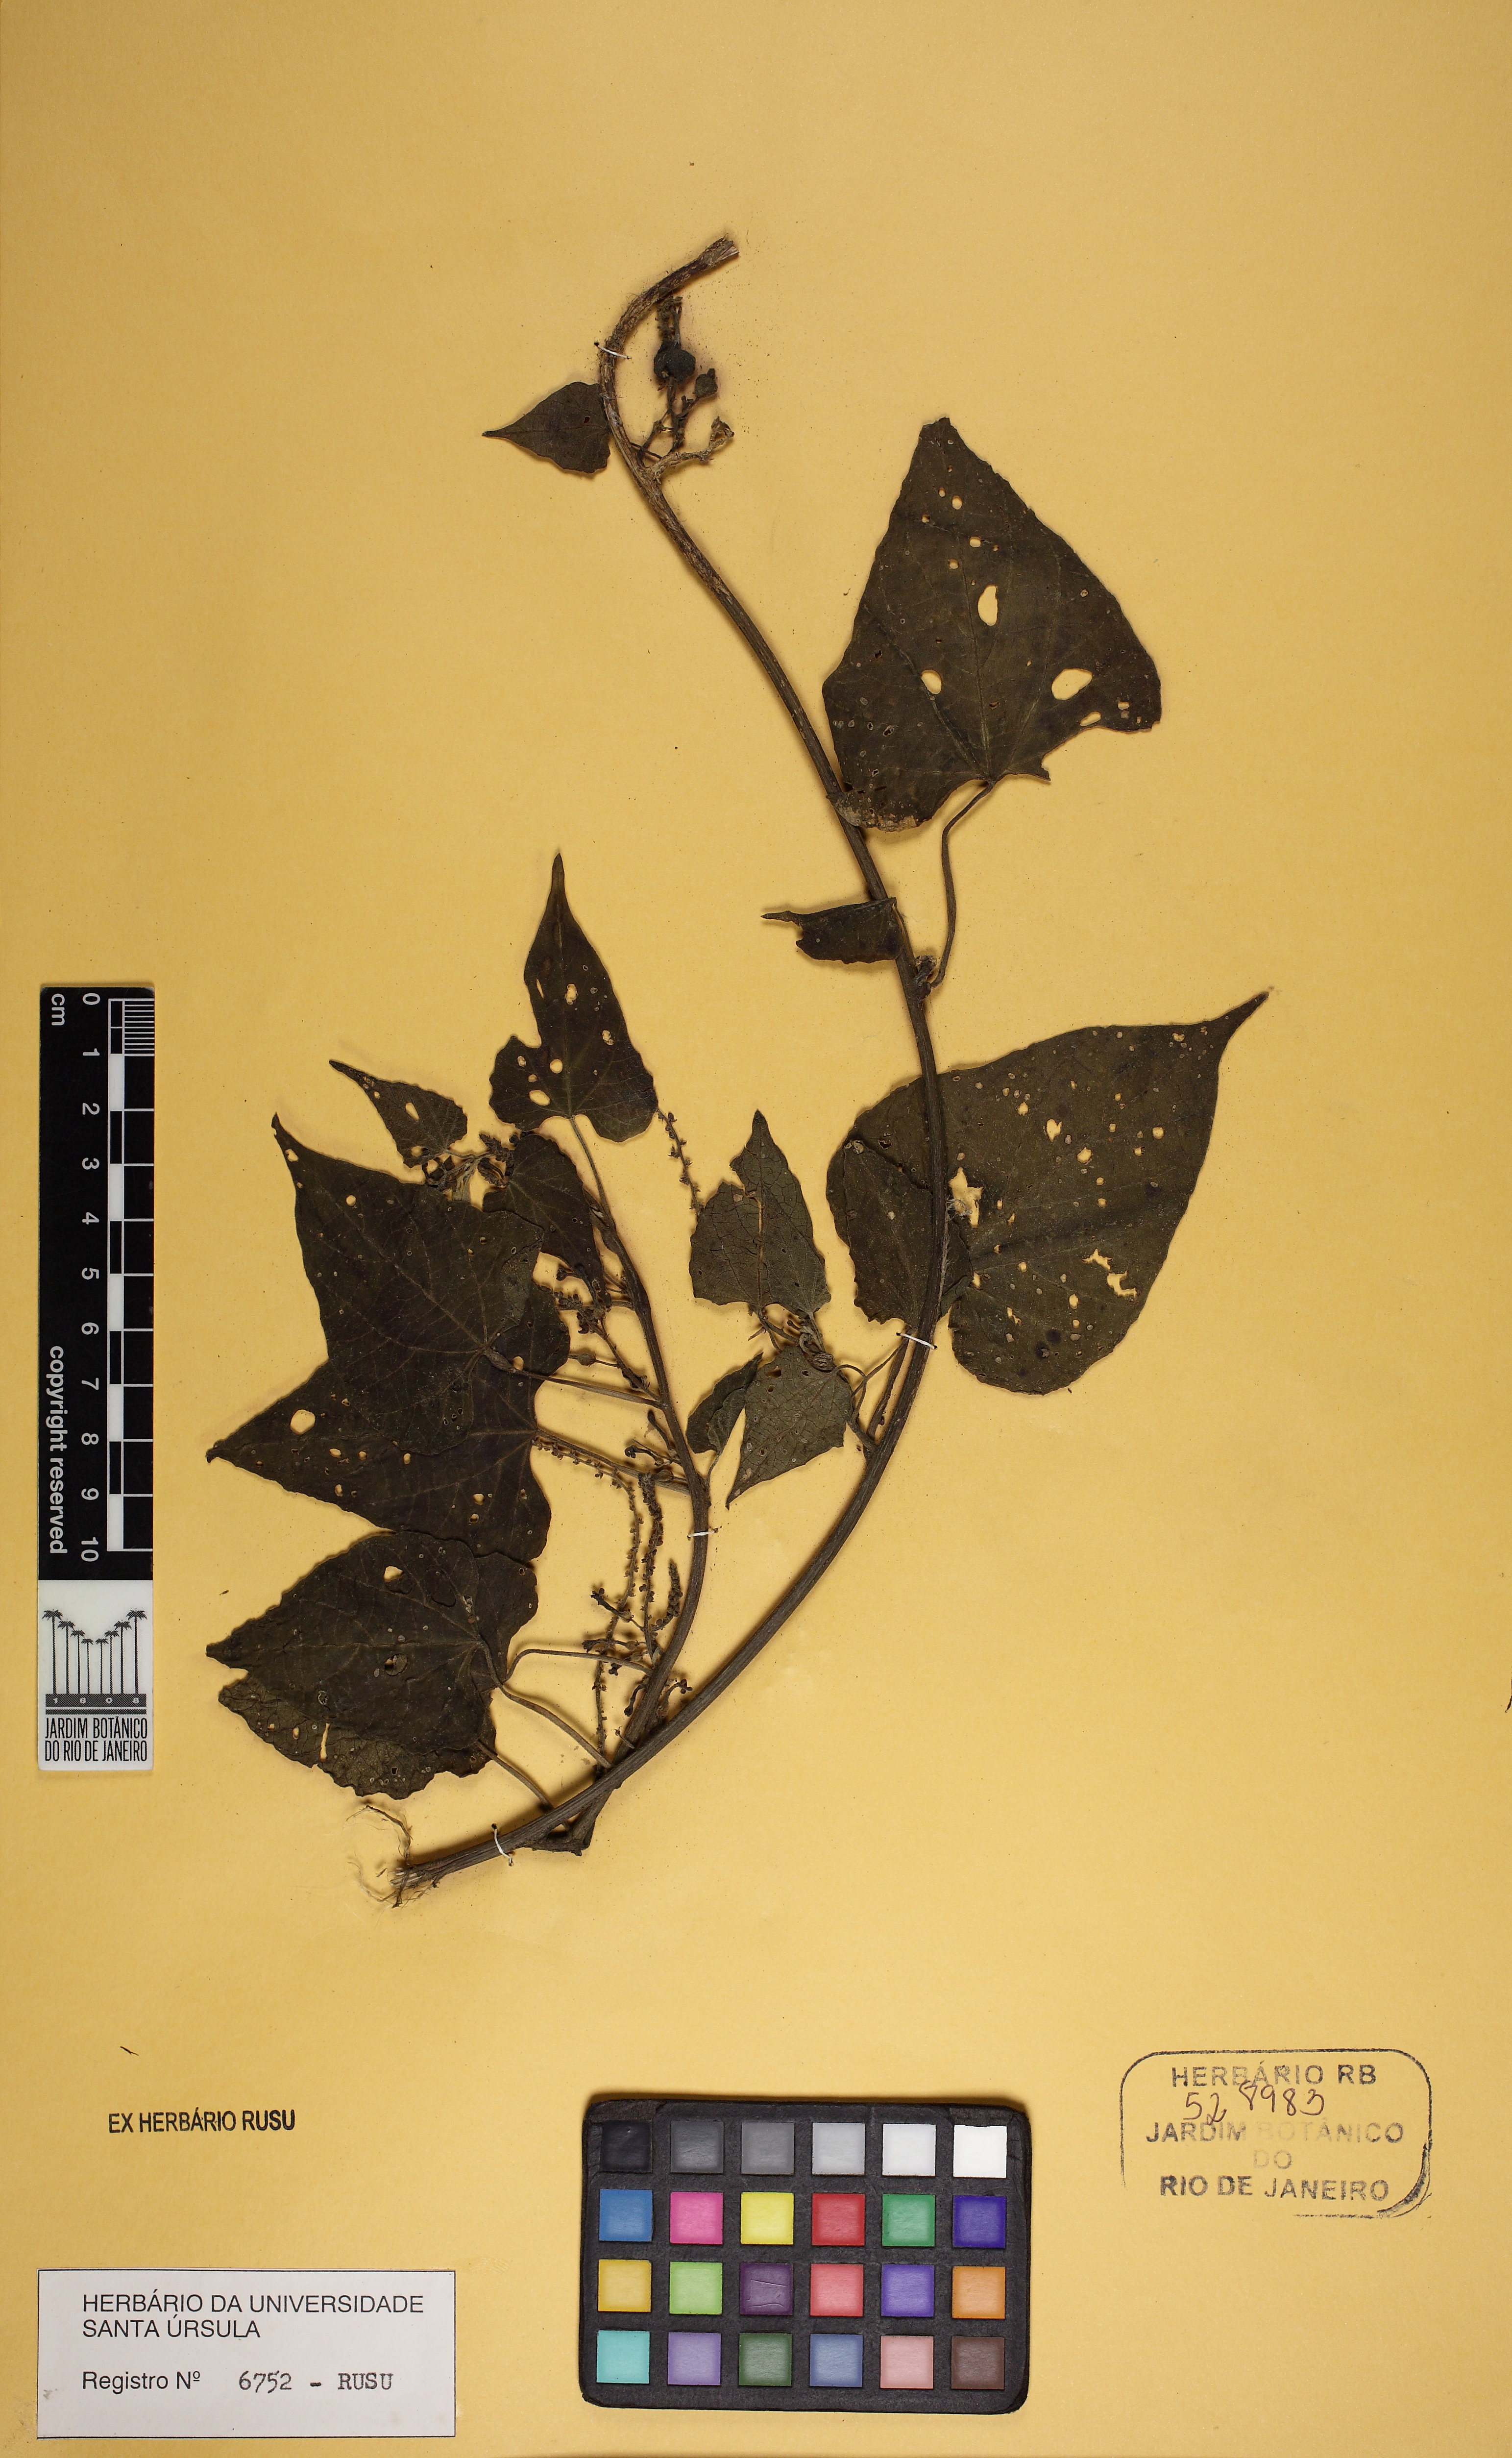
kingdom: Plantae
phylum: Tracheophyta
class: Magnoliopsida
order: Malpighiales
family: Euphorbiaceae
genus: Romanoa
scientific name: Romanoa tamnoides
